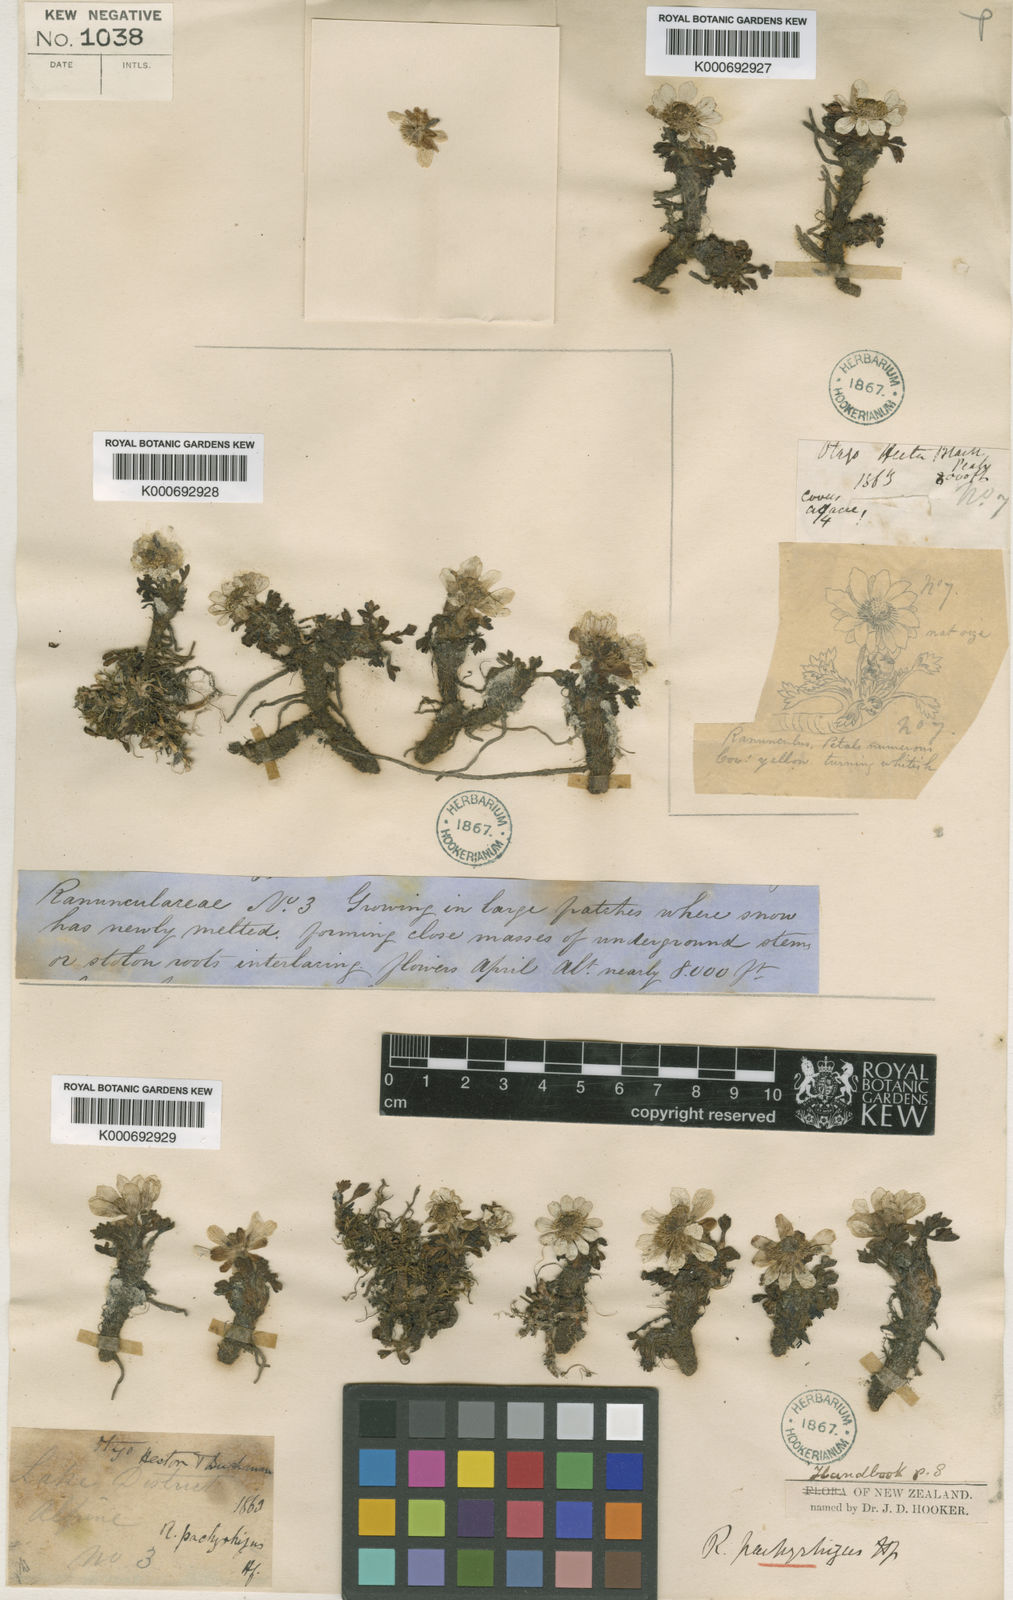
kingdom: Plantae
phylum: Tracheophyta
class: Magnoliopsida
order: Ranunculales
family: Ranunculaceae
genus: Ranunculus
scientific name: Ranunculus pachyrrhizus
